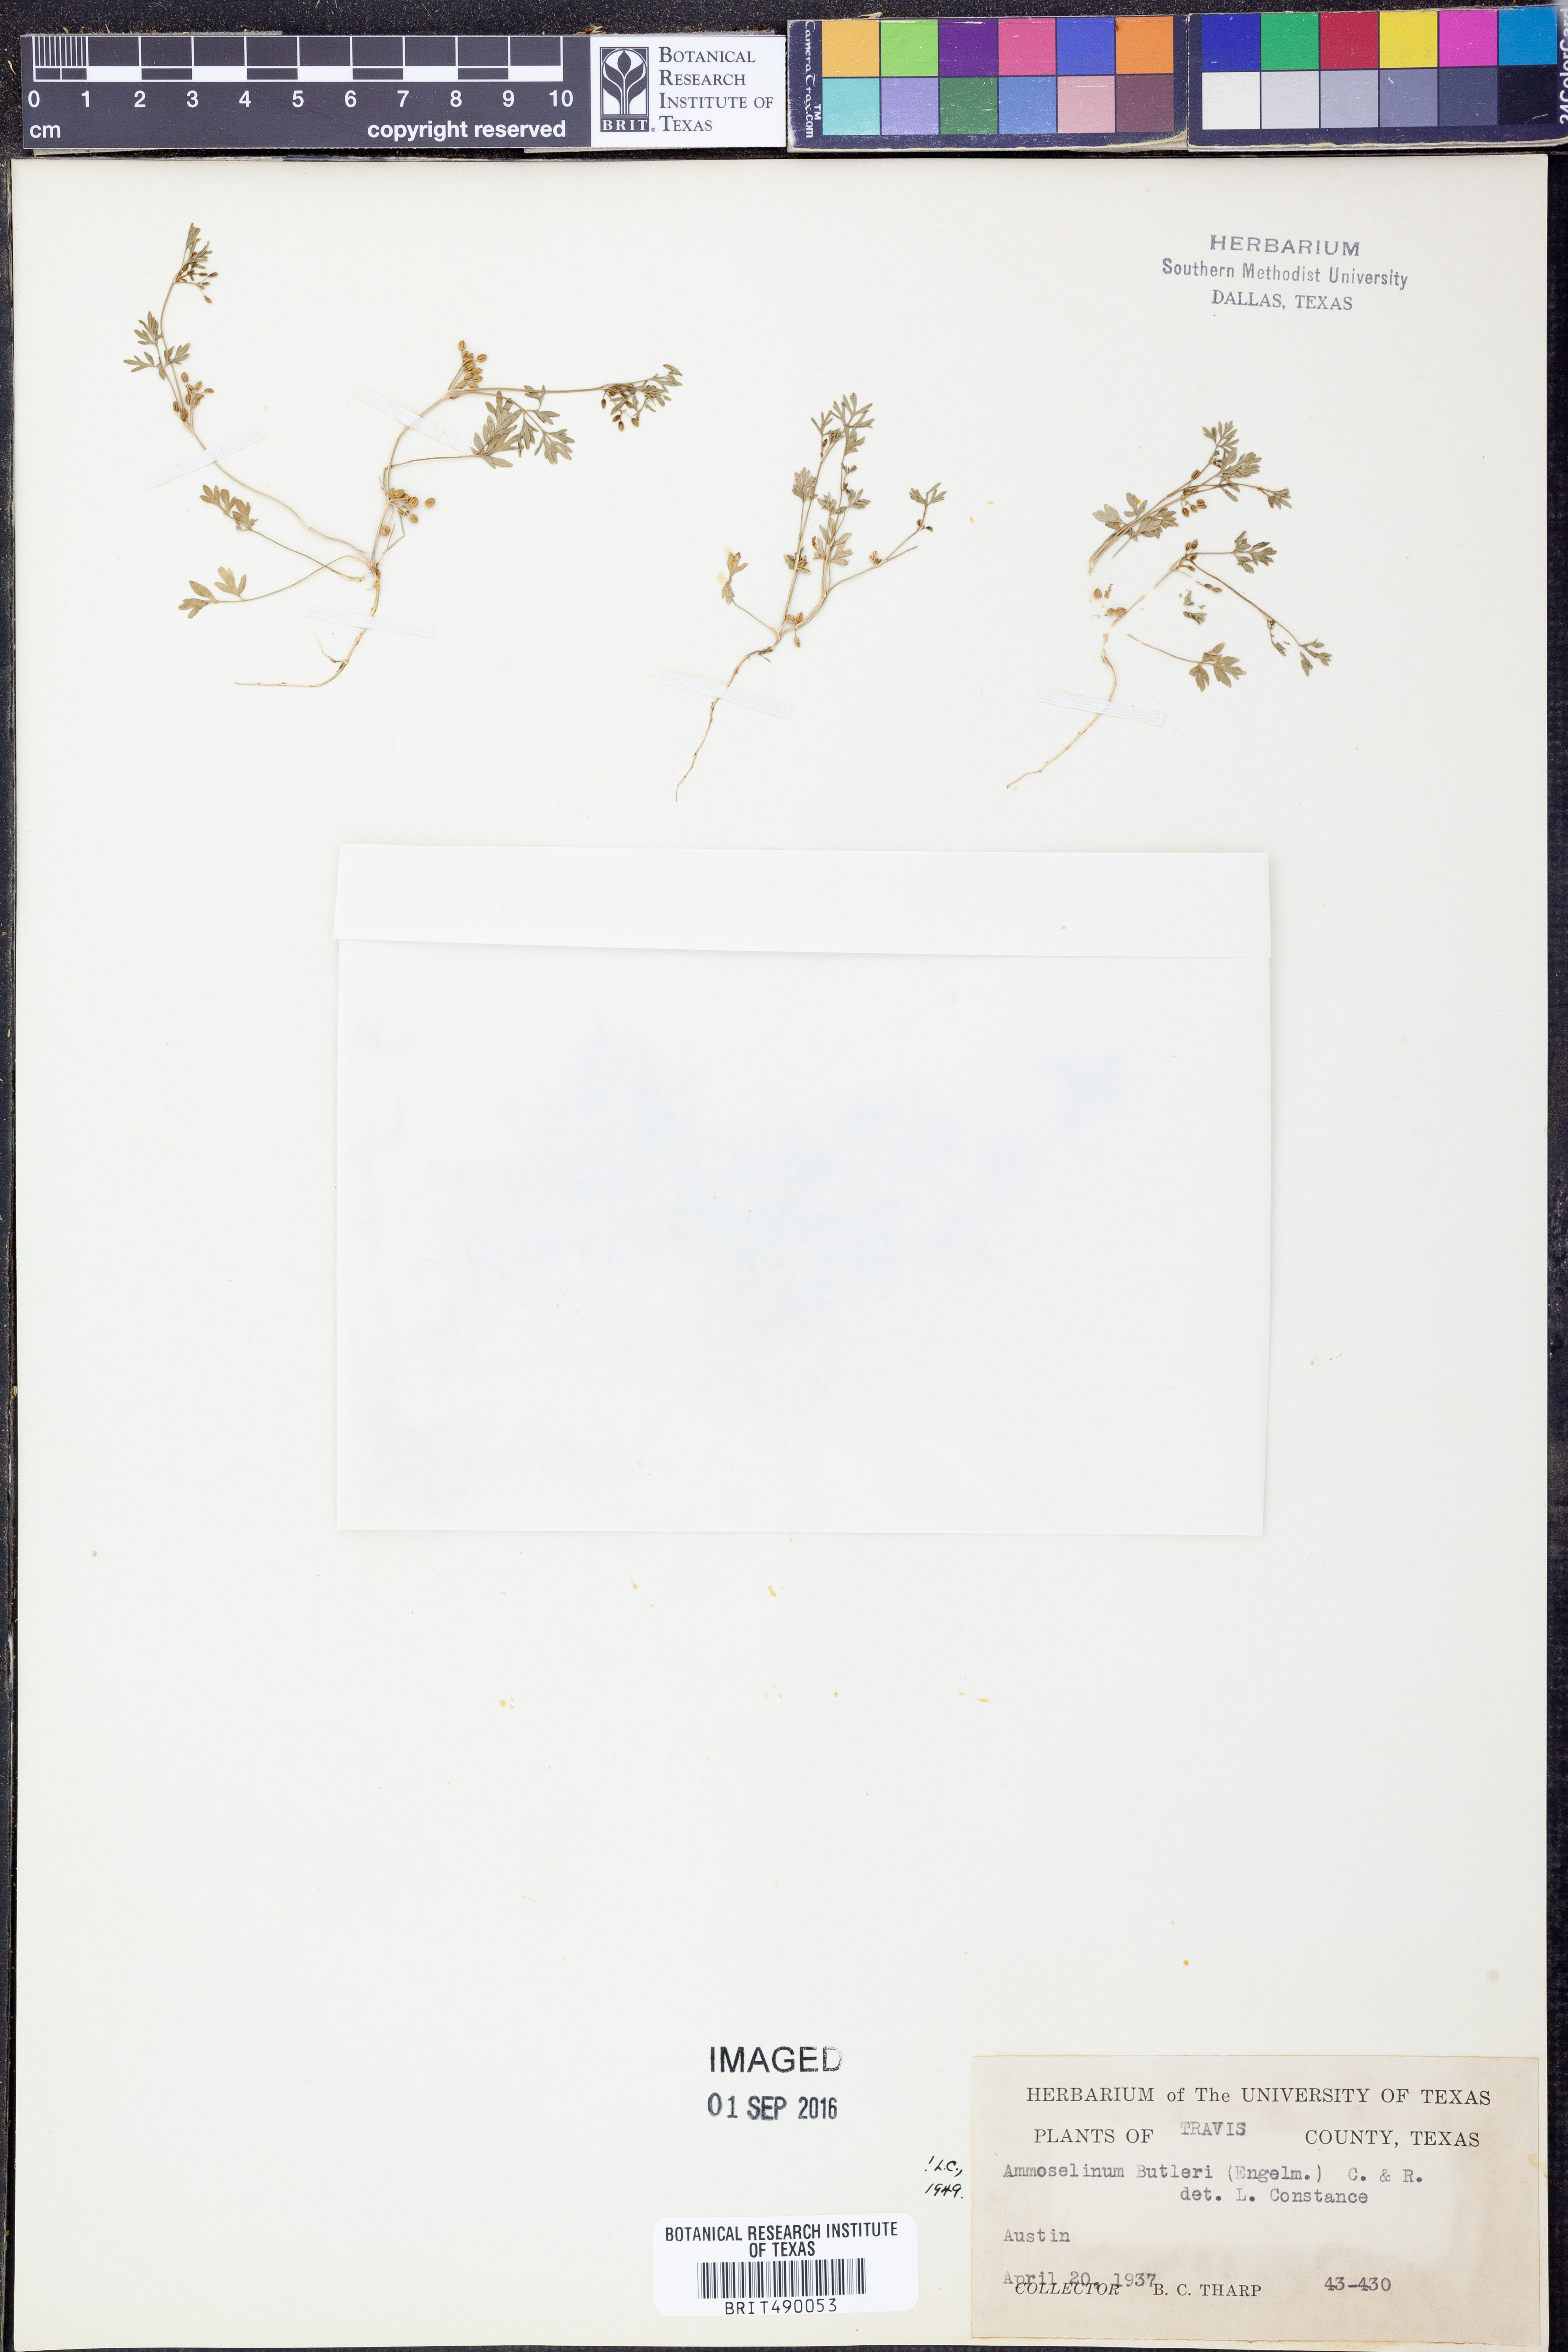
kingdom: Plantae
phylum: Tracheophyta
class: Magnoliopsida
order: Apiales
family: Apiaceae
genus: Ammoselinum
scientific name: Ammoselinum butleri
